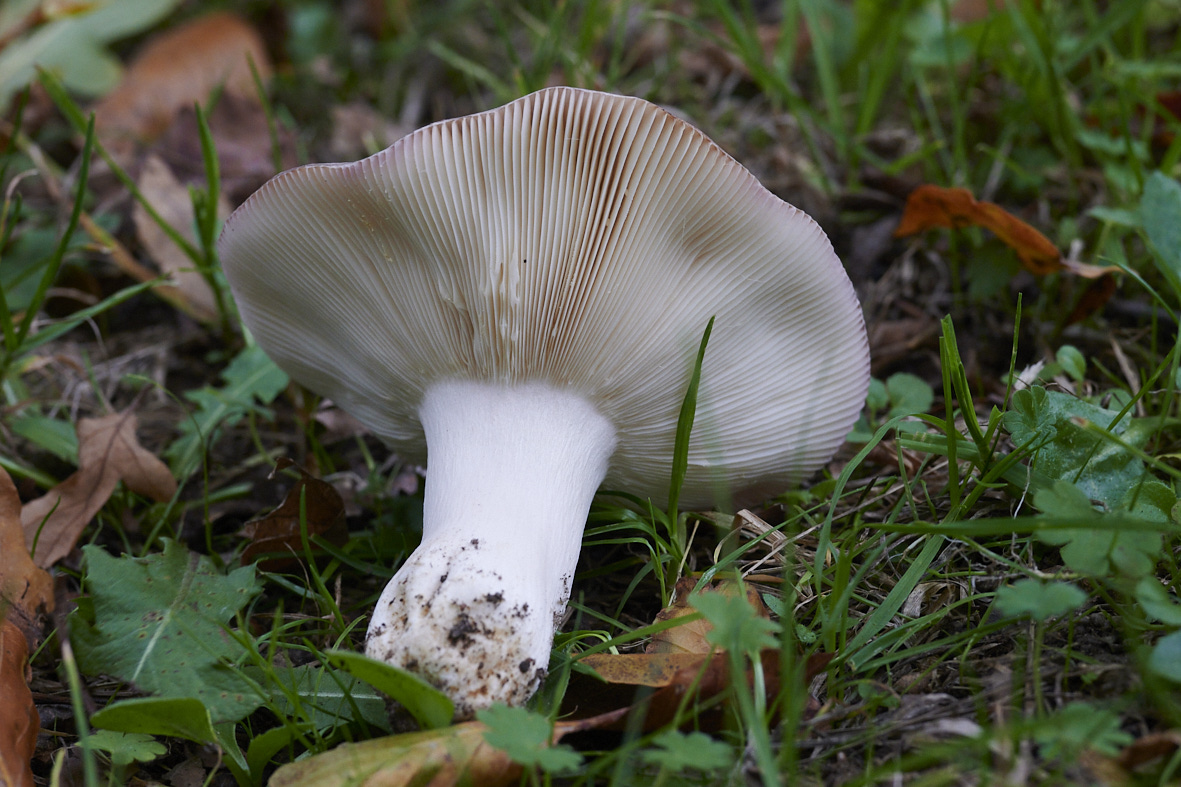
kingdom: Fungi
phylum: Basidiomycota
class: Agaricomycetes
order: Russulales
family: Russulaceae
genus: Russula
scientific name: Russula
